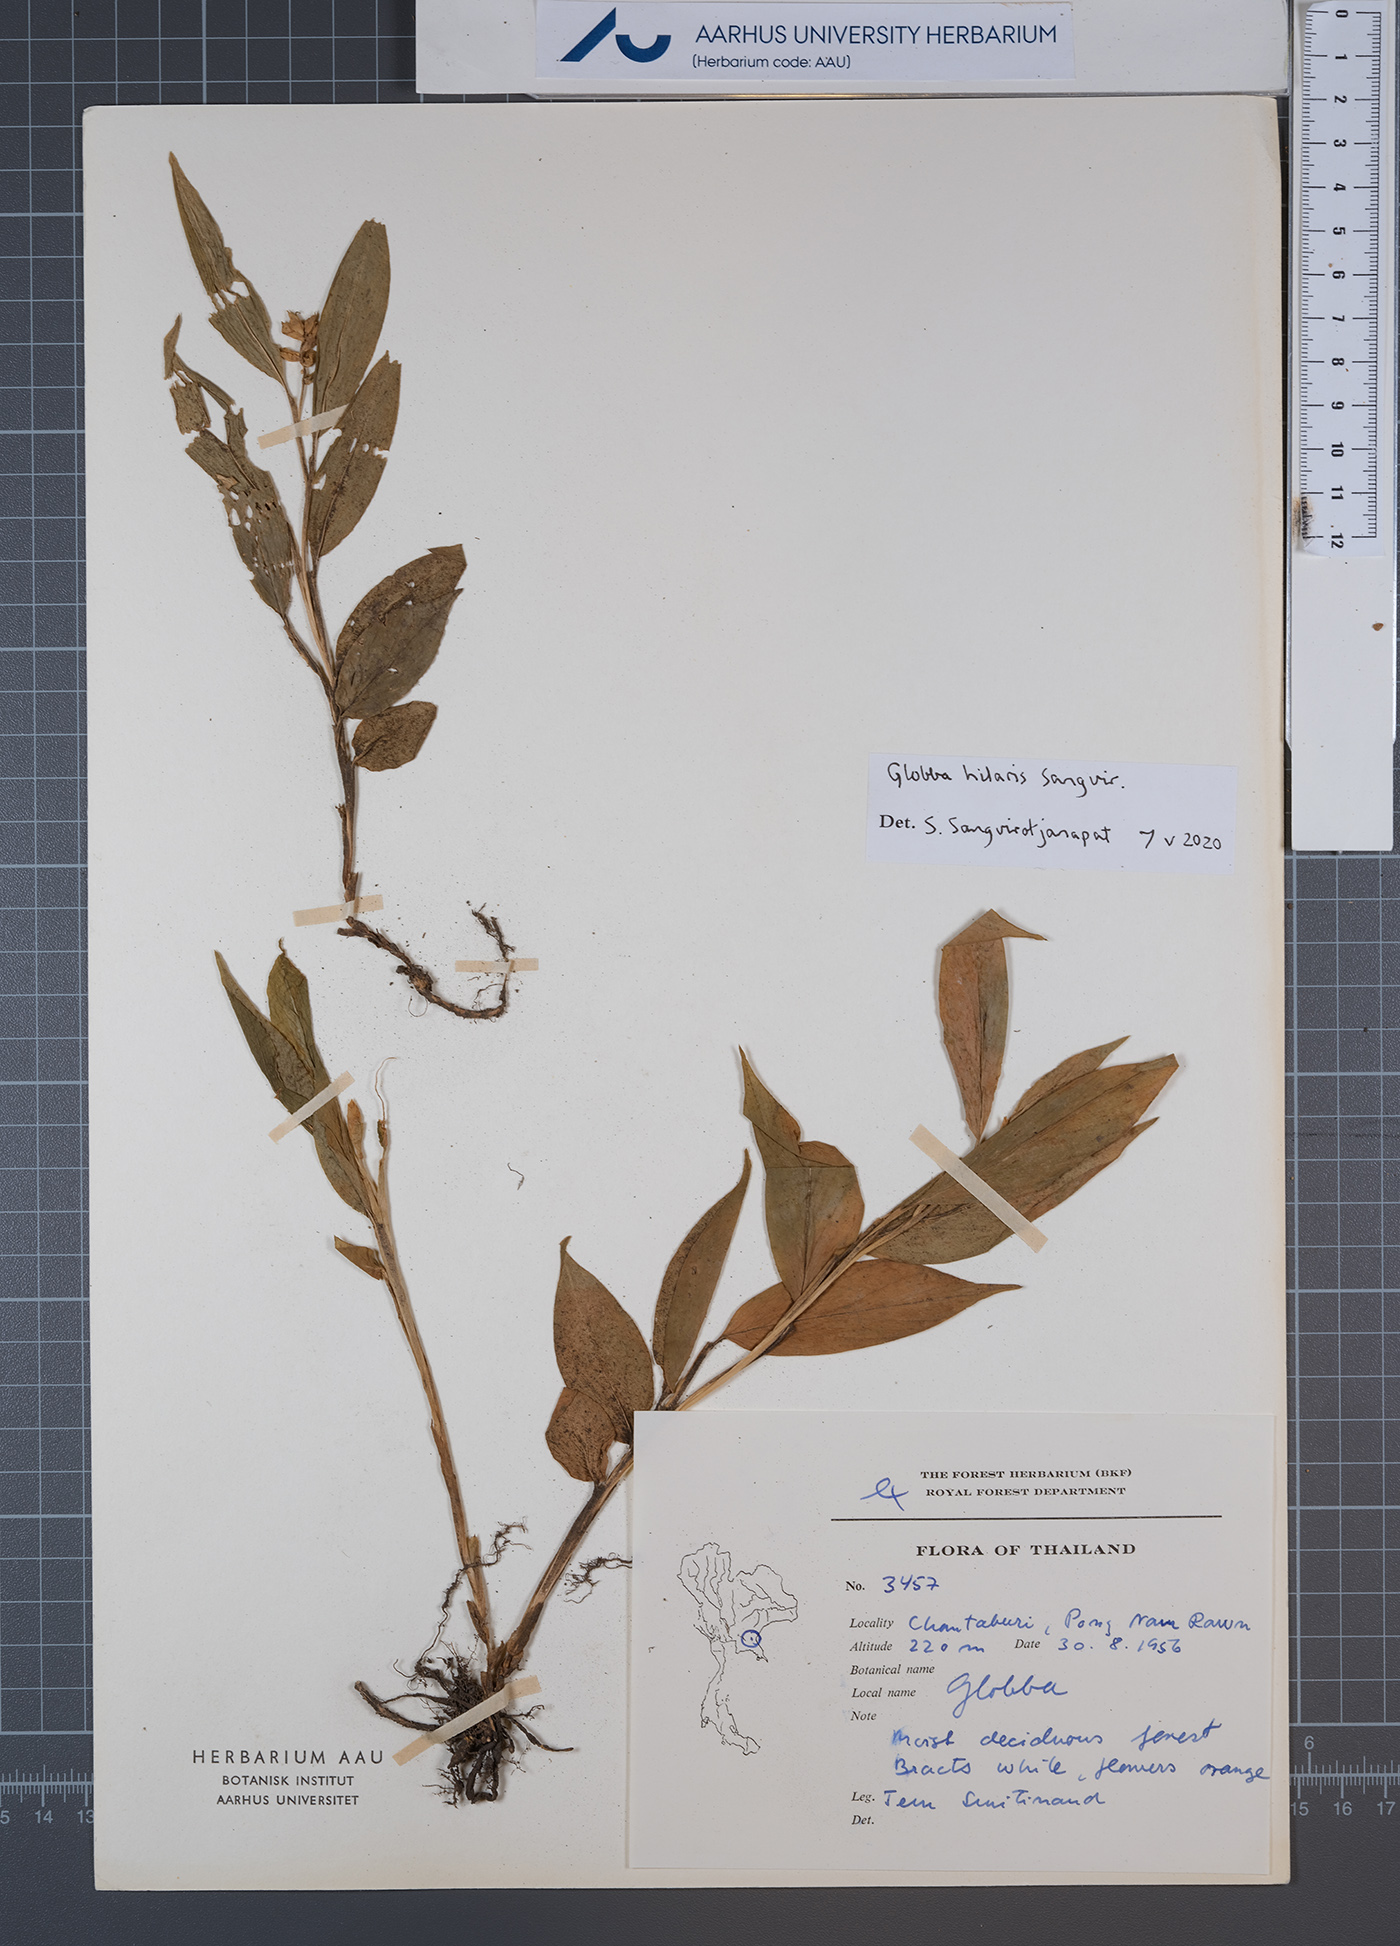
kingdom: Plantae
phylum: Tracheophyta
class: Liliopsida
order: Zingiberales
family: Zingiberaceae
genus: Globba
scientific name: Globba hilaris
